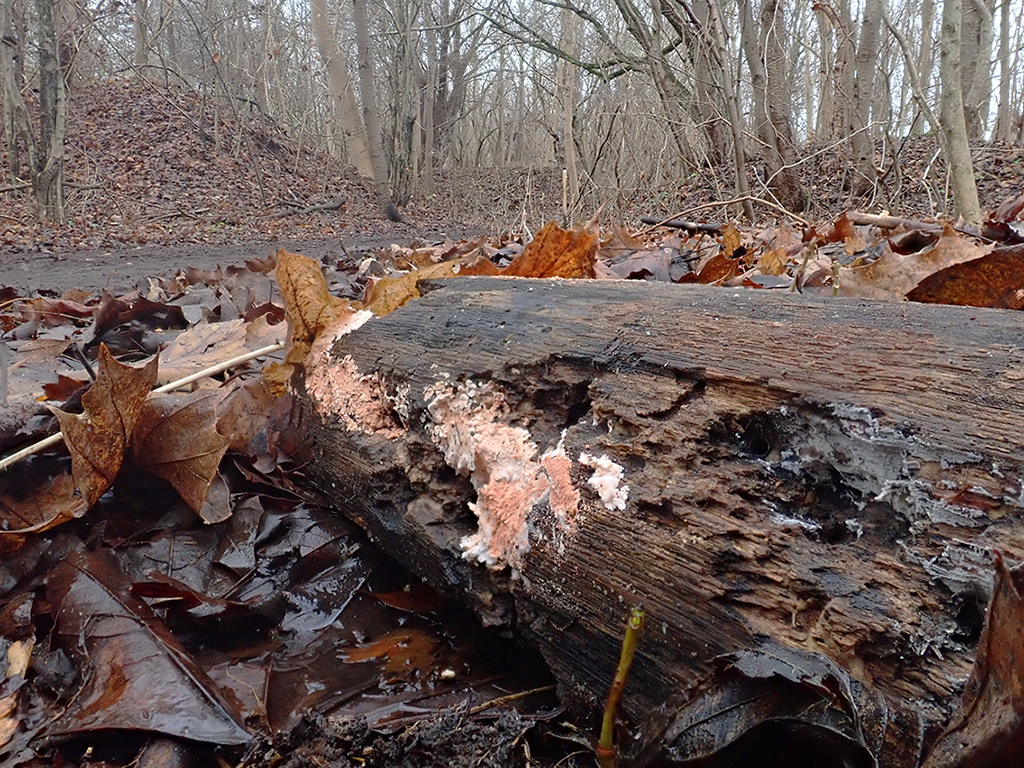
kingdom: Fungi
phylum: Basidiomycota
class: Agaricomycetes
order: Corticiales
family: Corticiaceae
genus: Corticium
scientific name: Corticium roseum
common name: rosa barkskind
